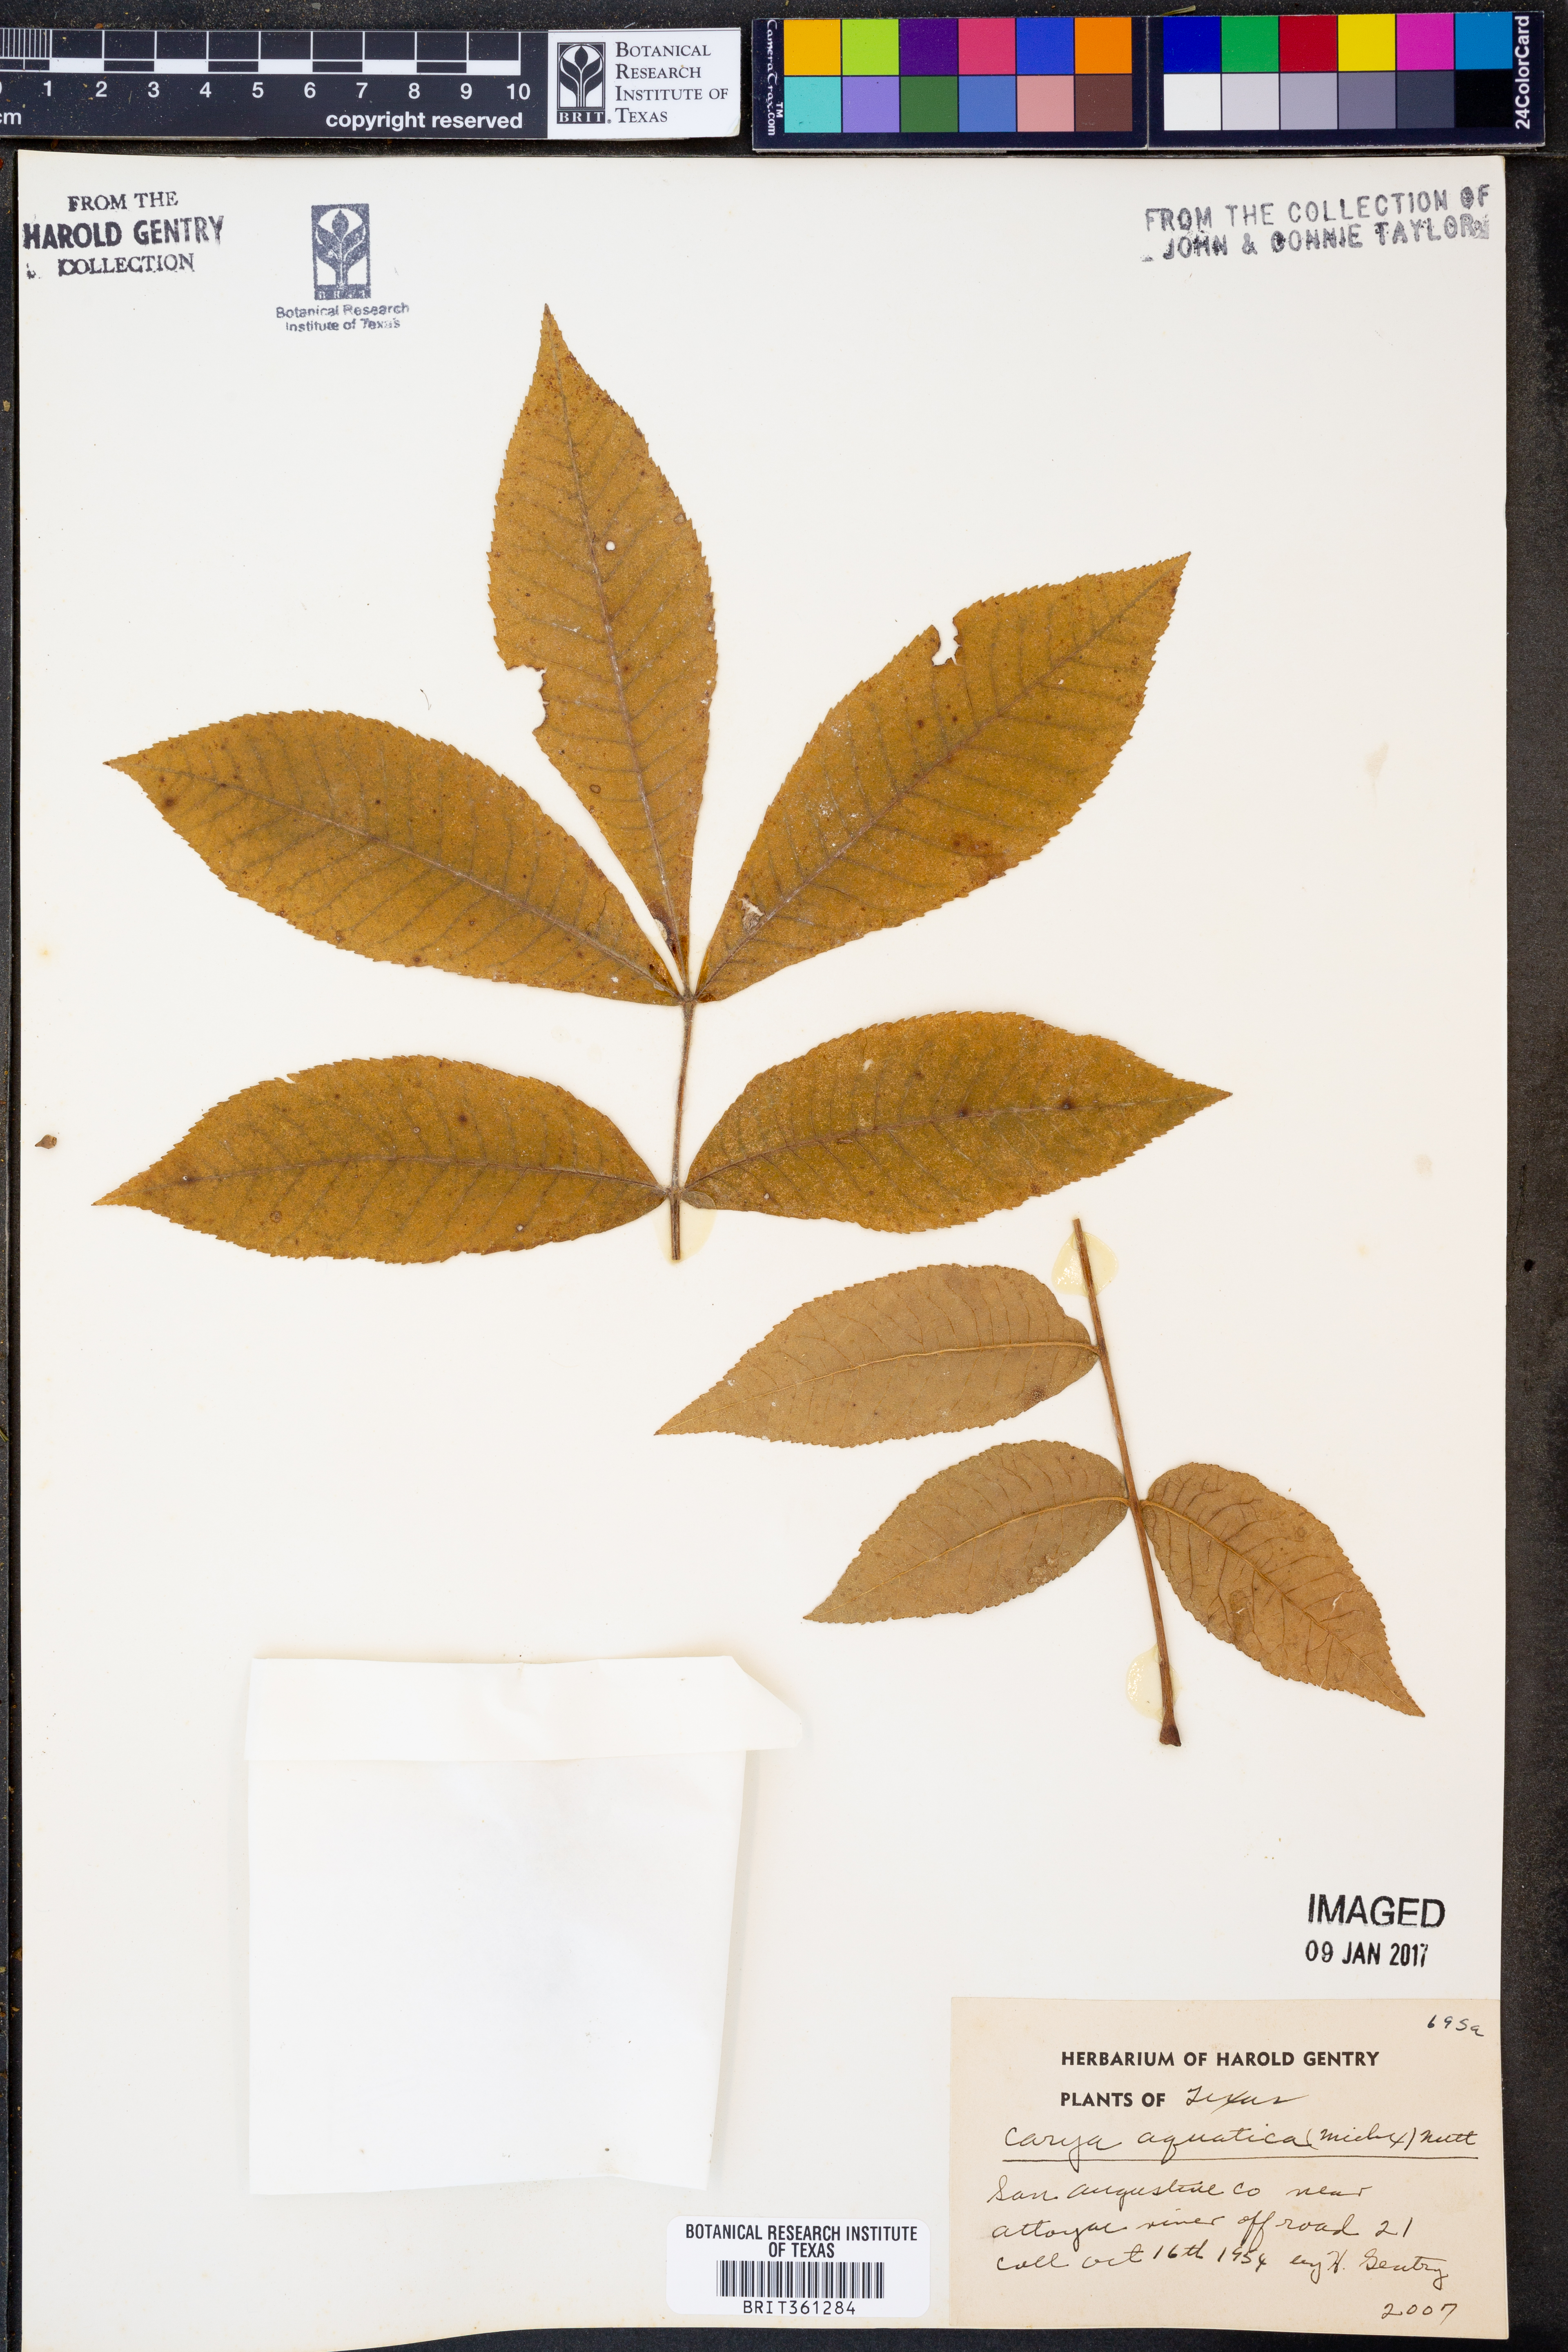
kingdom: Plantae
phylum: Tracheophyta
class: Magnoliopsida
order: Fagales
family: Juglandaceae
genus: Carya
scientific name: Carya aquatica
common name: Water hickory
